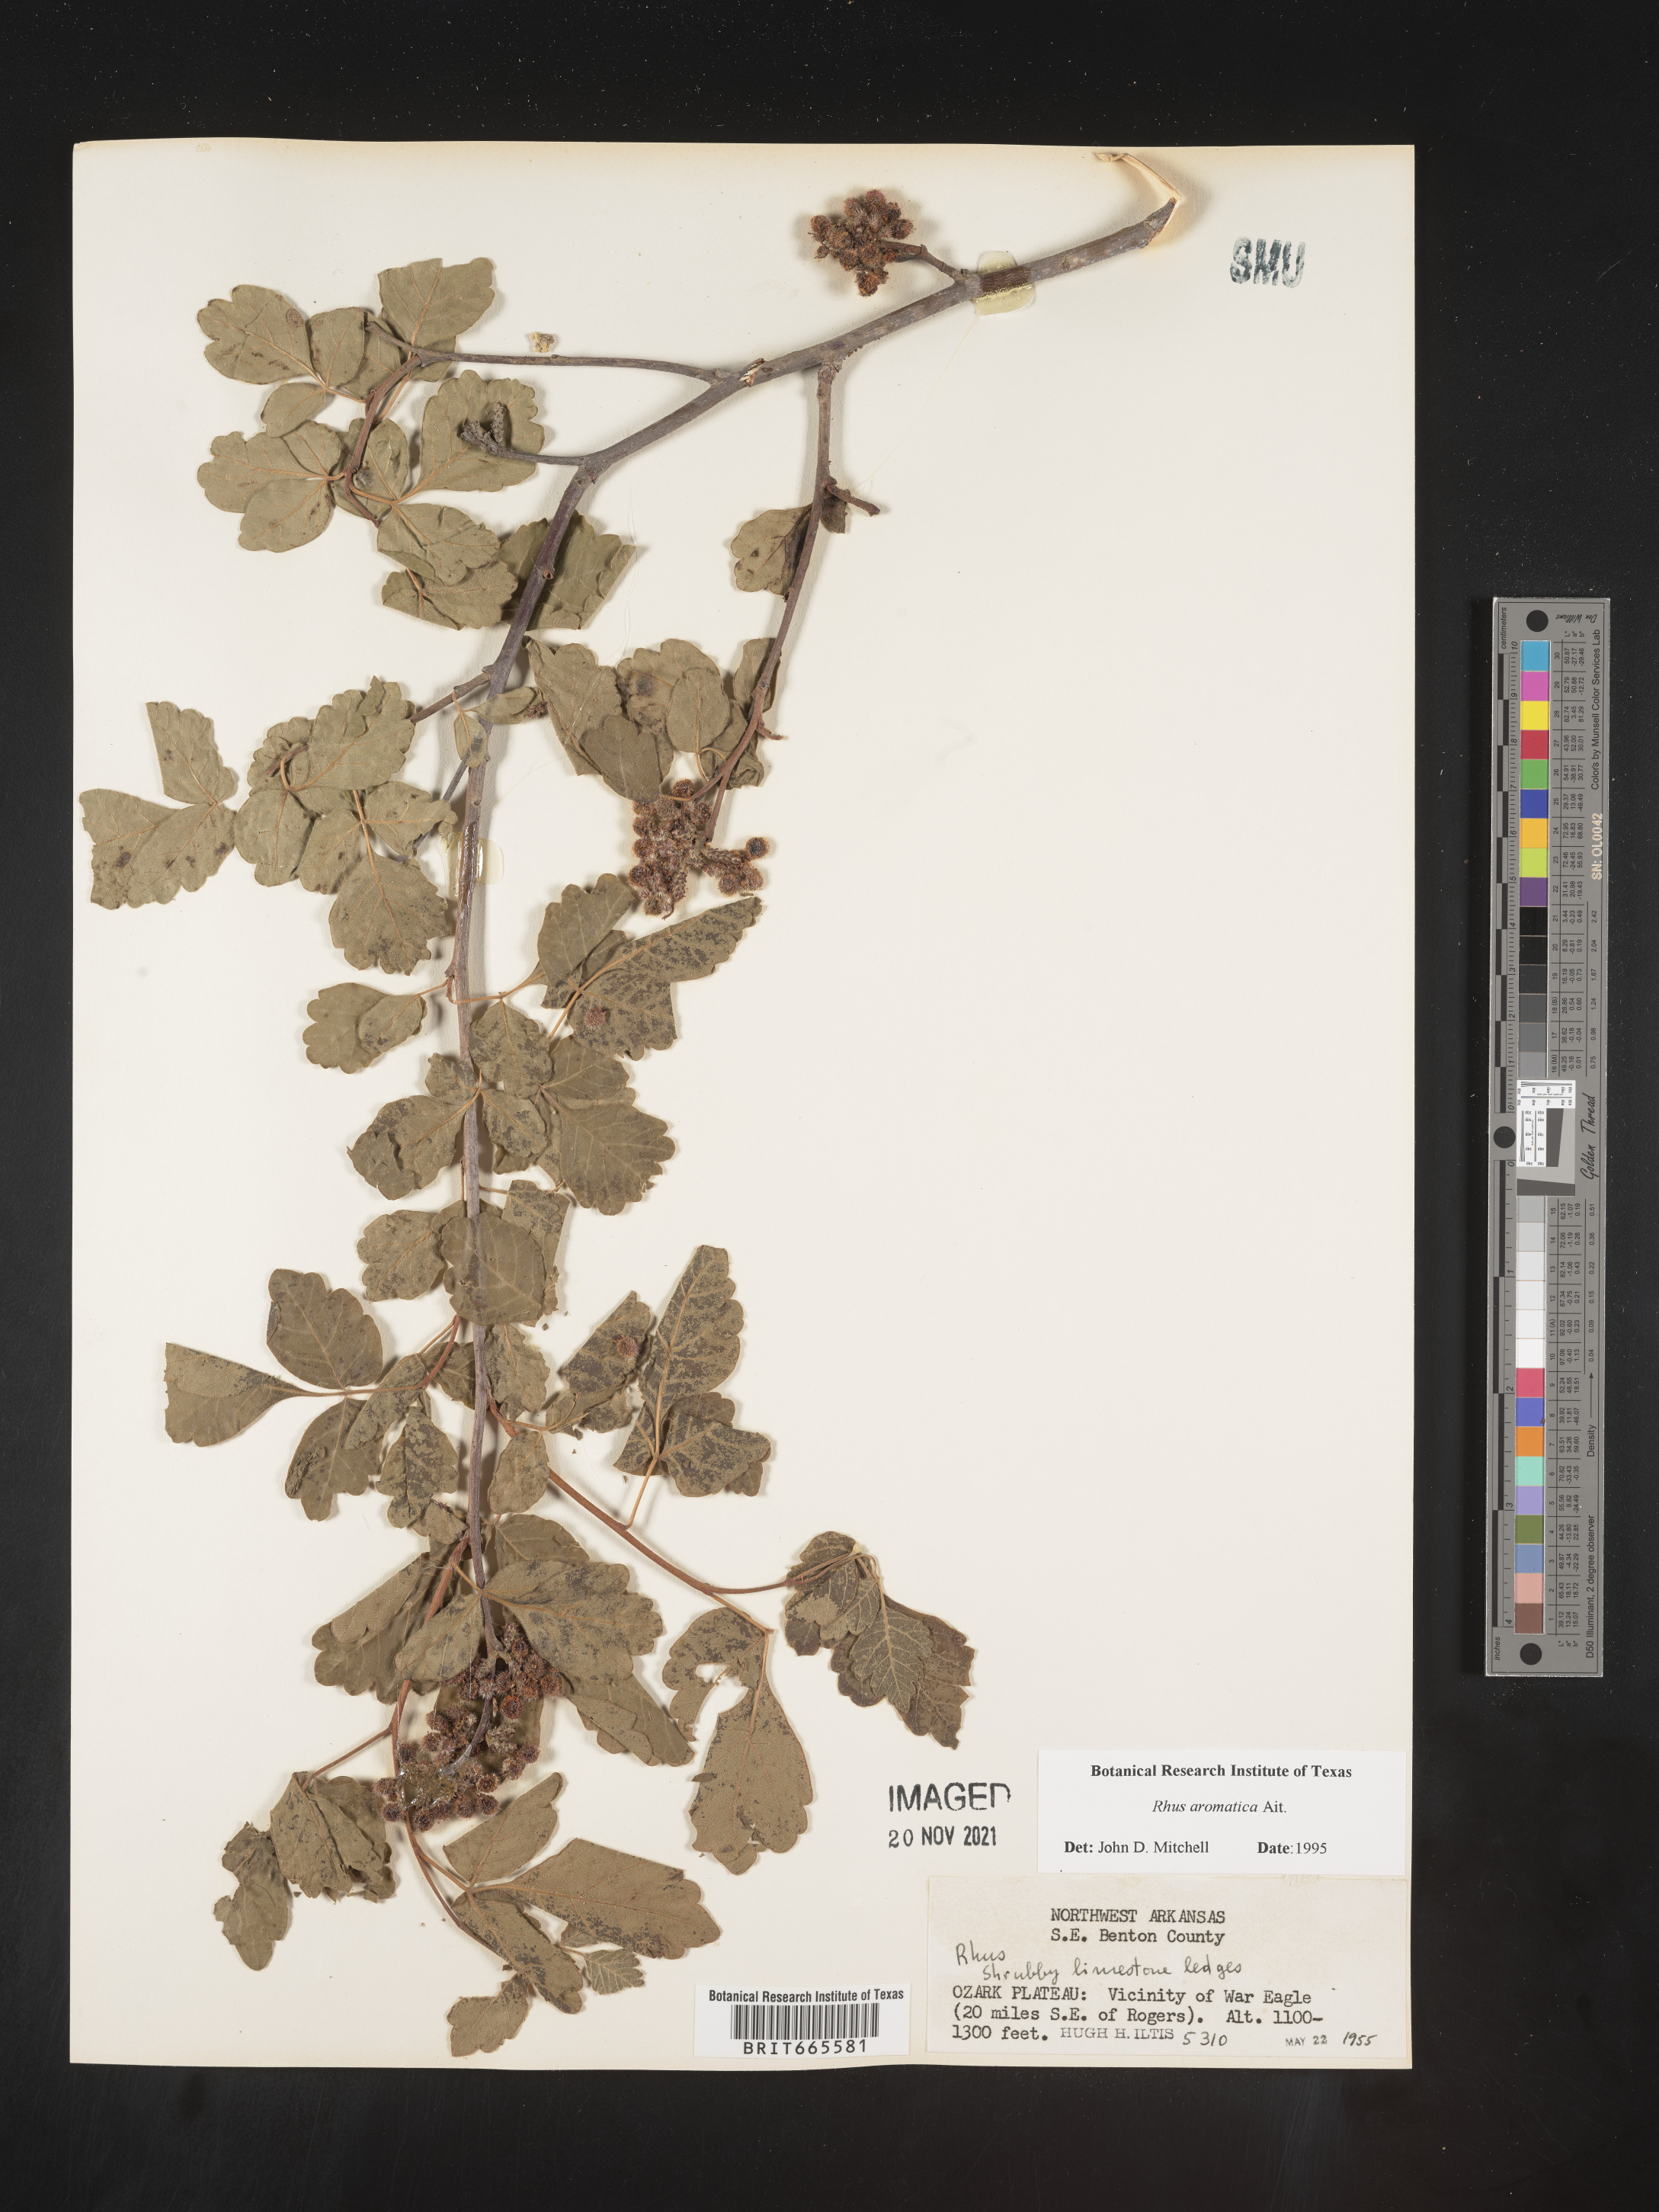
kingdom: Plantae
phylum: Tracheophyta
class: Magnoliopsida
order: Sapindales
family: Anacardiaceae
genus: Rhus
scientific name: Rhus aromatica
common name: Aromatic sumac
